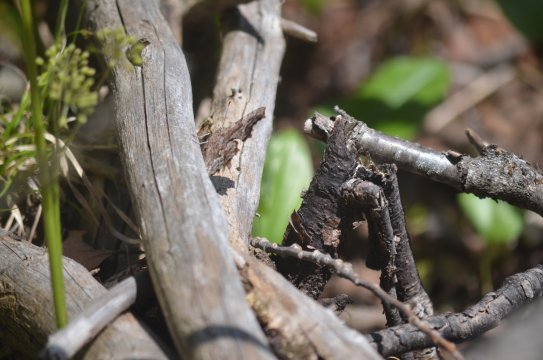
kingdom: Animalia
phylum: Arthropoda
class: Insecta
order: Lepidoptera
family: Nymphalidae
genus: Polygonia
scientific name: Polygonia
